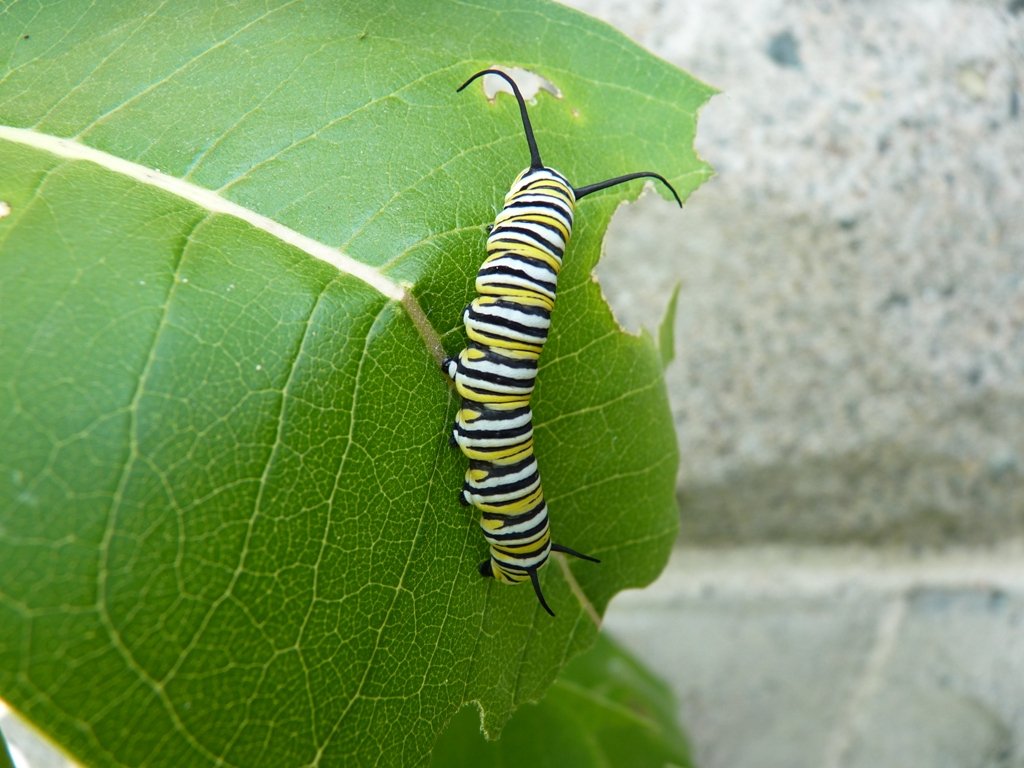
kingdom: Animalia
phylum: Arthropoda
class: Insecta
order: Lepidoptera
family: Nymphalidae
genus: Danaus
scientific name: Danaus plexippus
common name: Monarch
